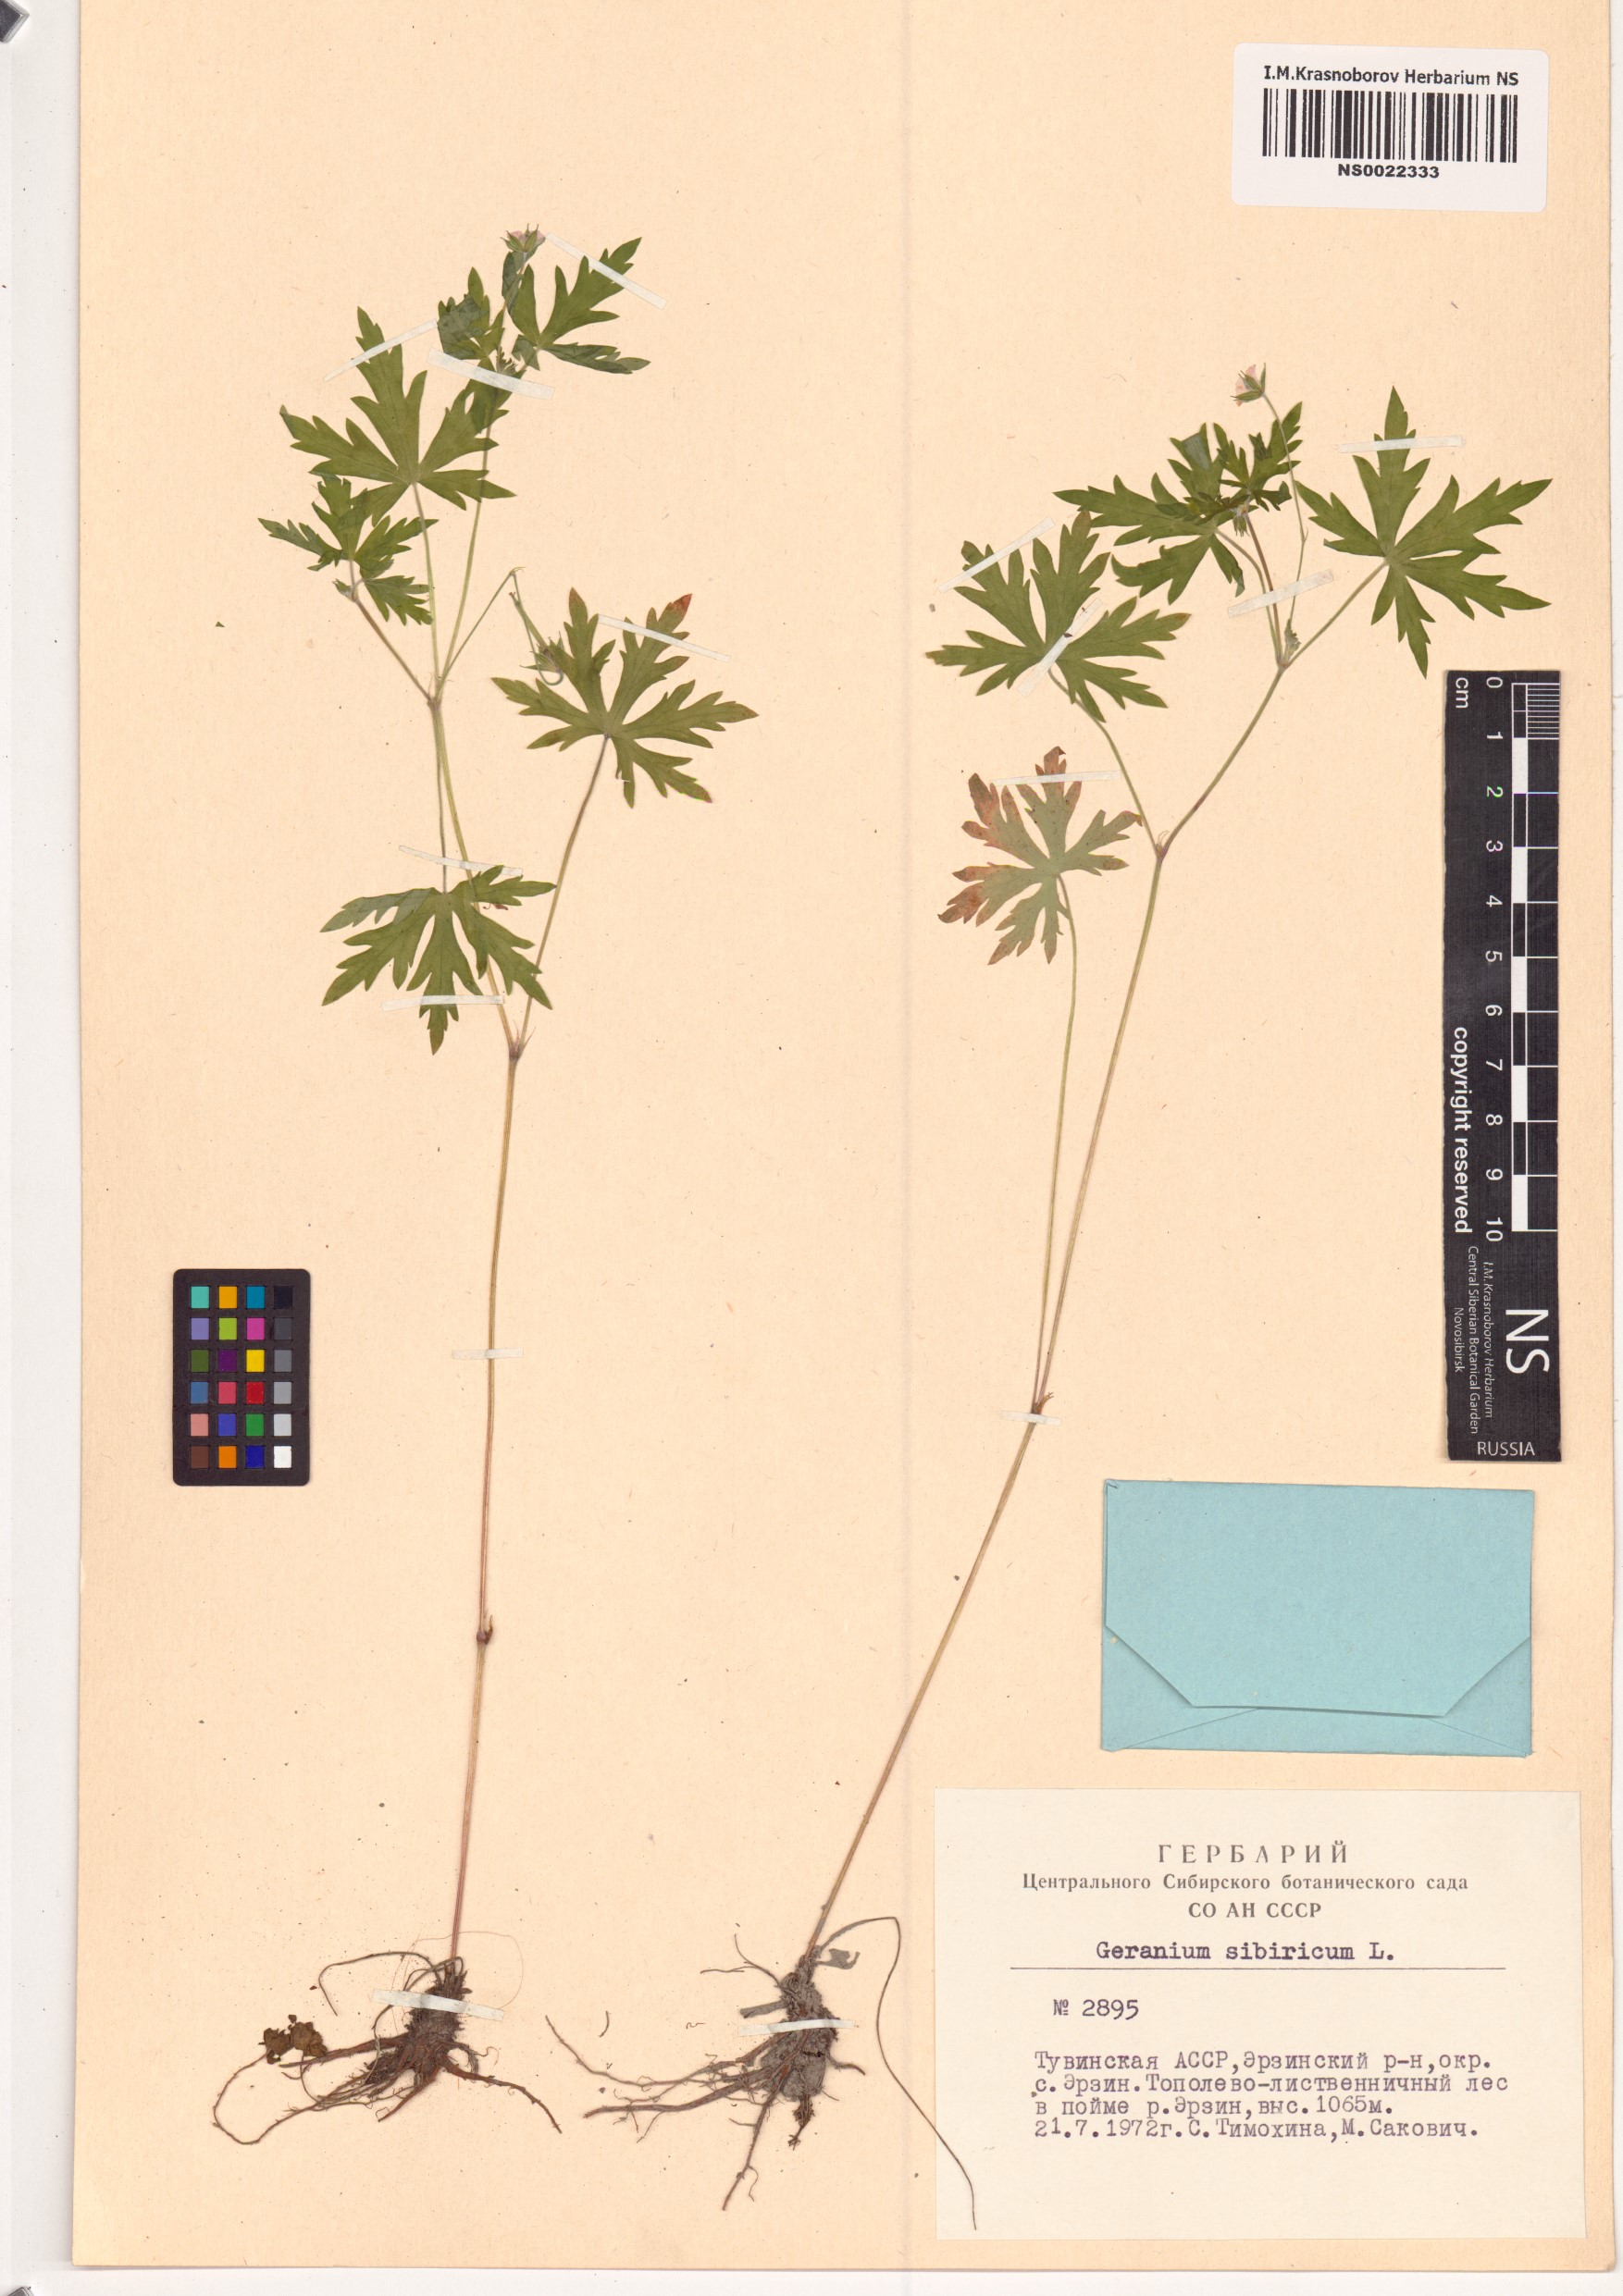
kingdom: Plantae
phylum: Tracheophyta
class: Magnoliopsida
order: Geraniales
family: Geraniaceae
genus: Geranium
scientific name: Geranium sibiricum
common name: Siberian crane's-bill
